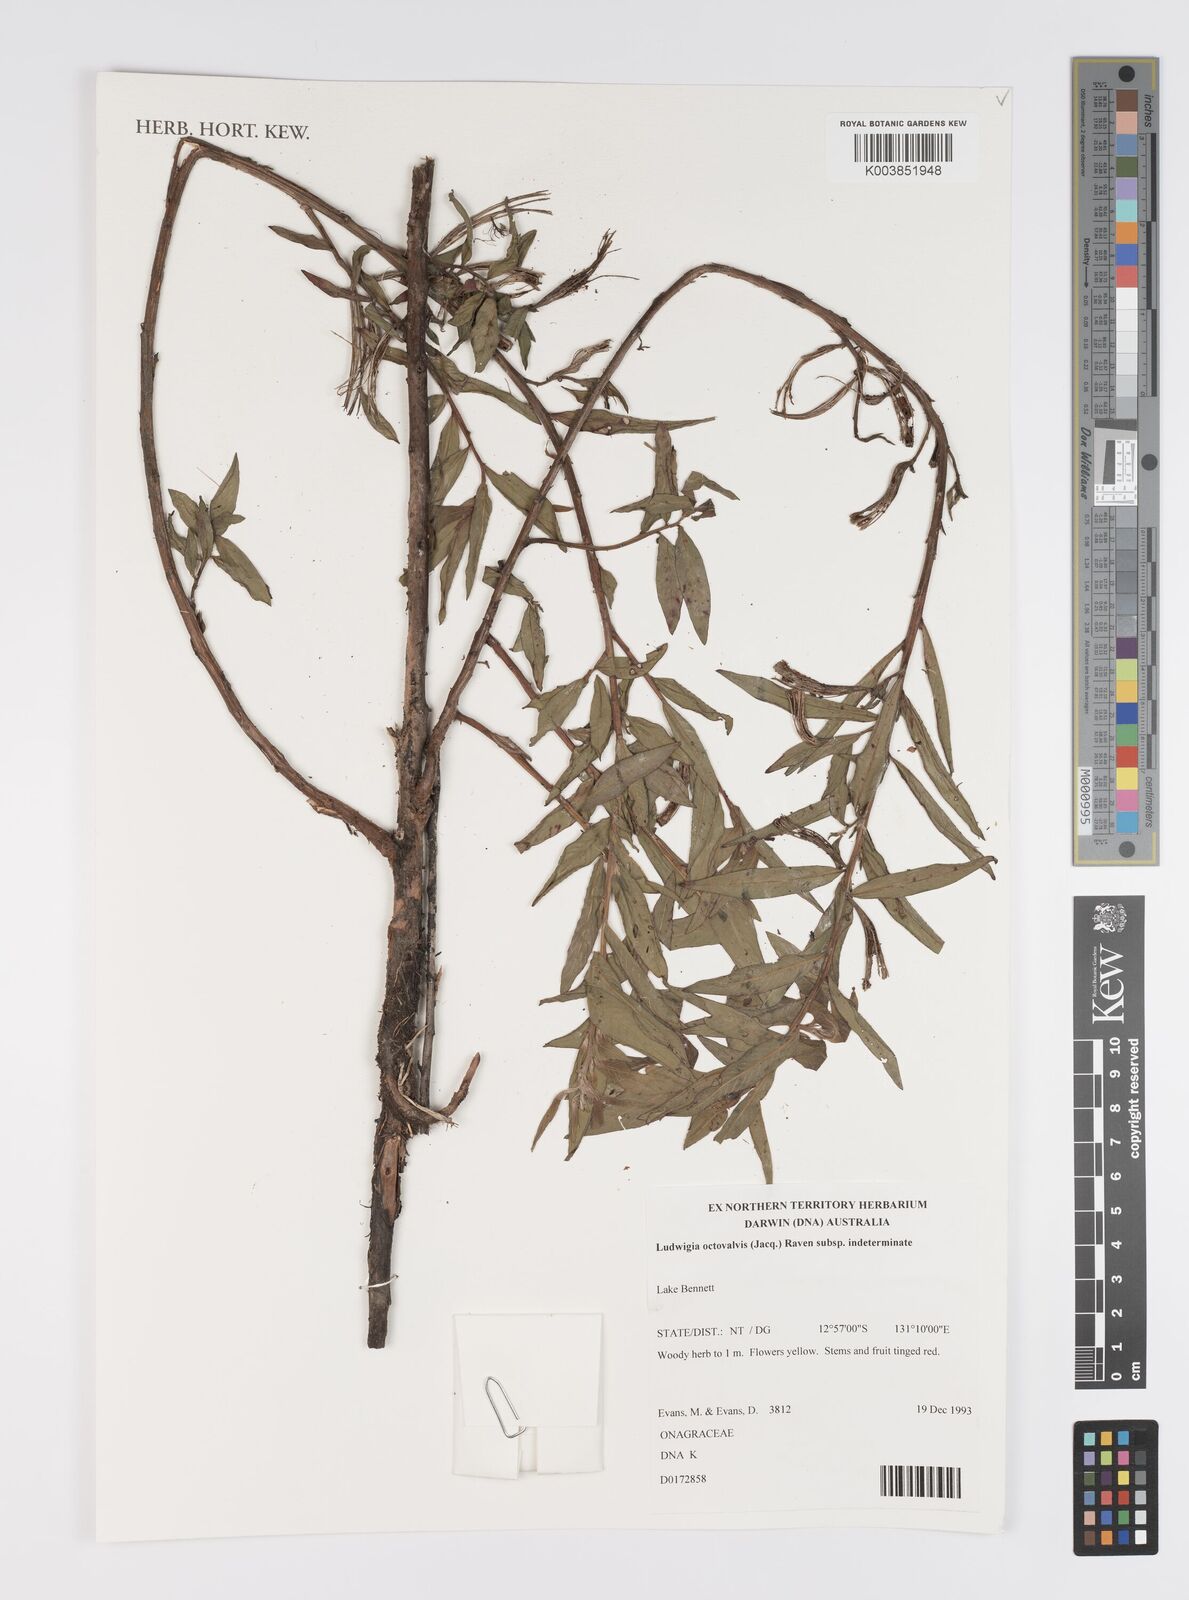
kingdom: Plantae
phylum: Tracheophyta
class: Magnoliopsida
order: Myrtales
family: Onagraceae
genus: Ludwigia
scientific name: Ludwigia octovalvis
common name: Water-primrose
